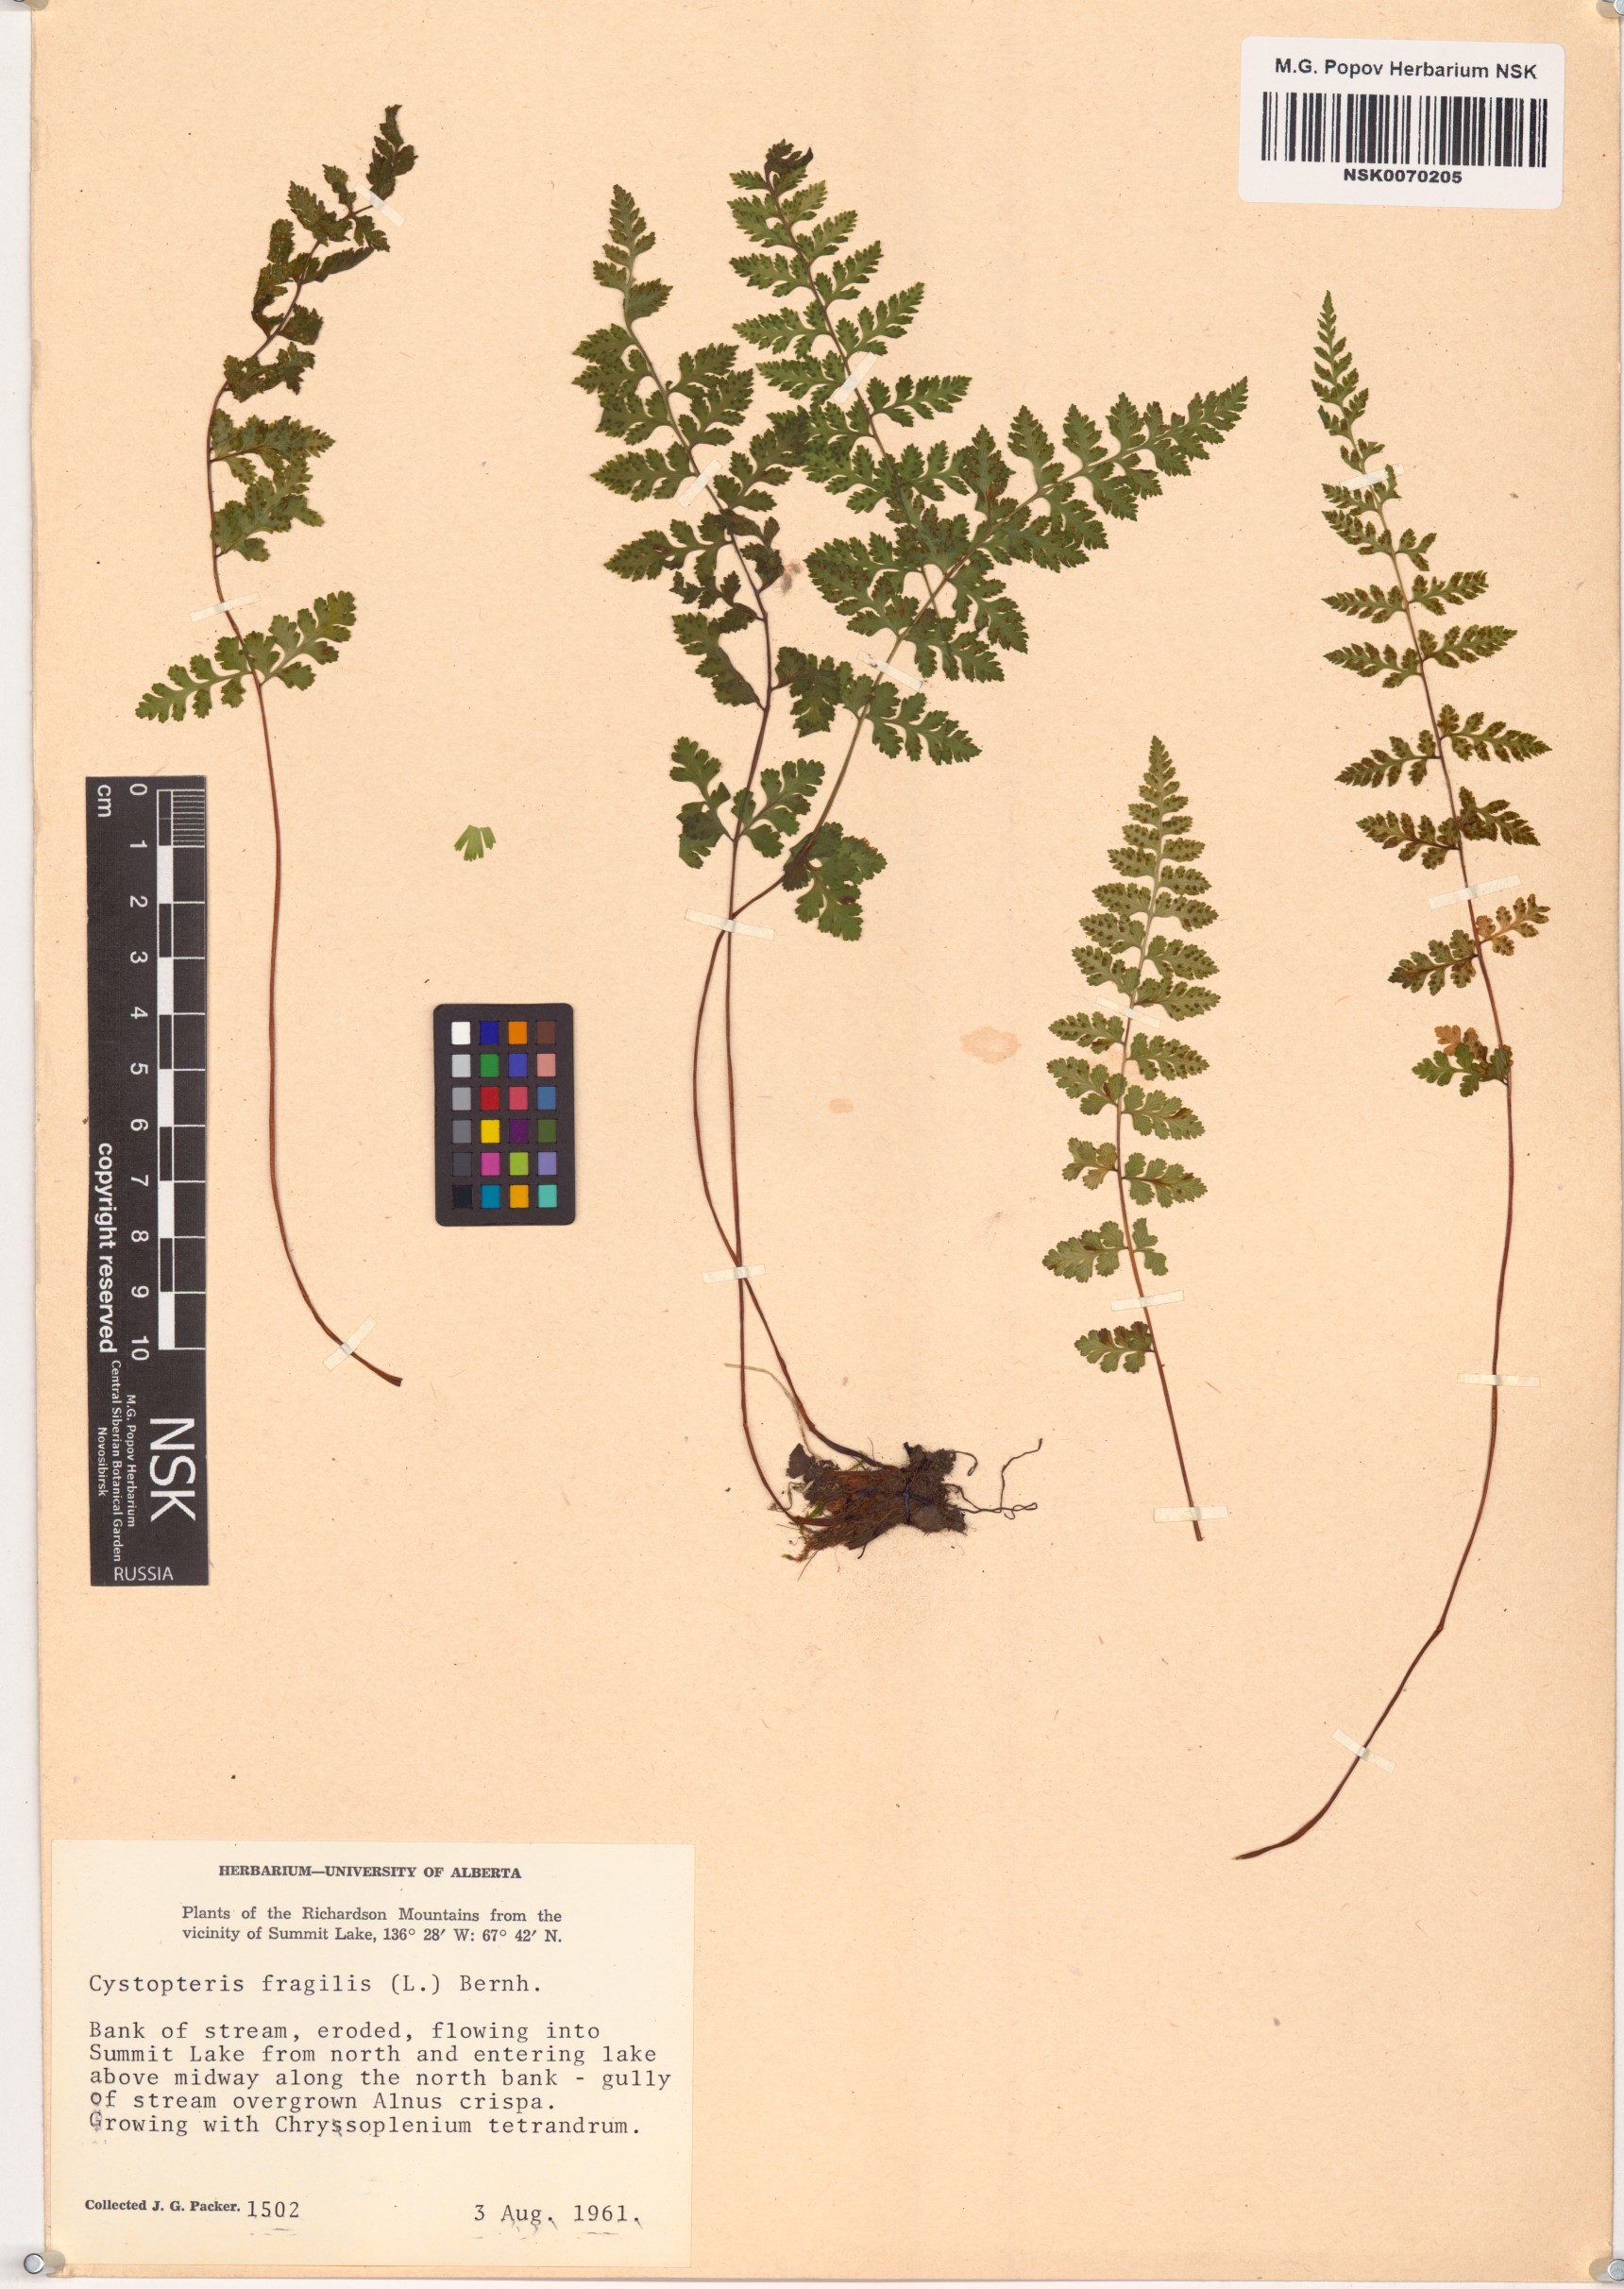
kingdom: Plantae
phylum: Tracheophyta
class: Polypodiopsida
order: Polypodiales
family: Cystopteridaceae
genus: Cystopteris
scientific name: Cystopteris fragilis
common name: Brittle bladder fern
